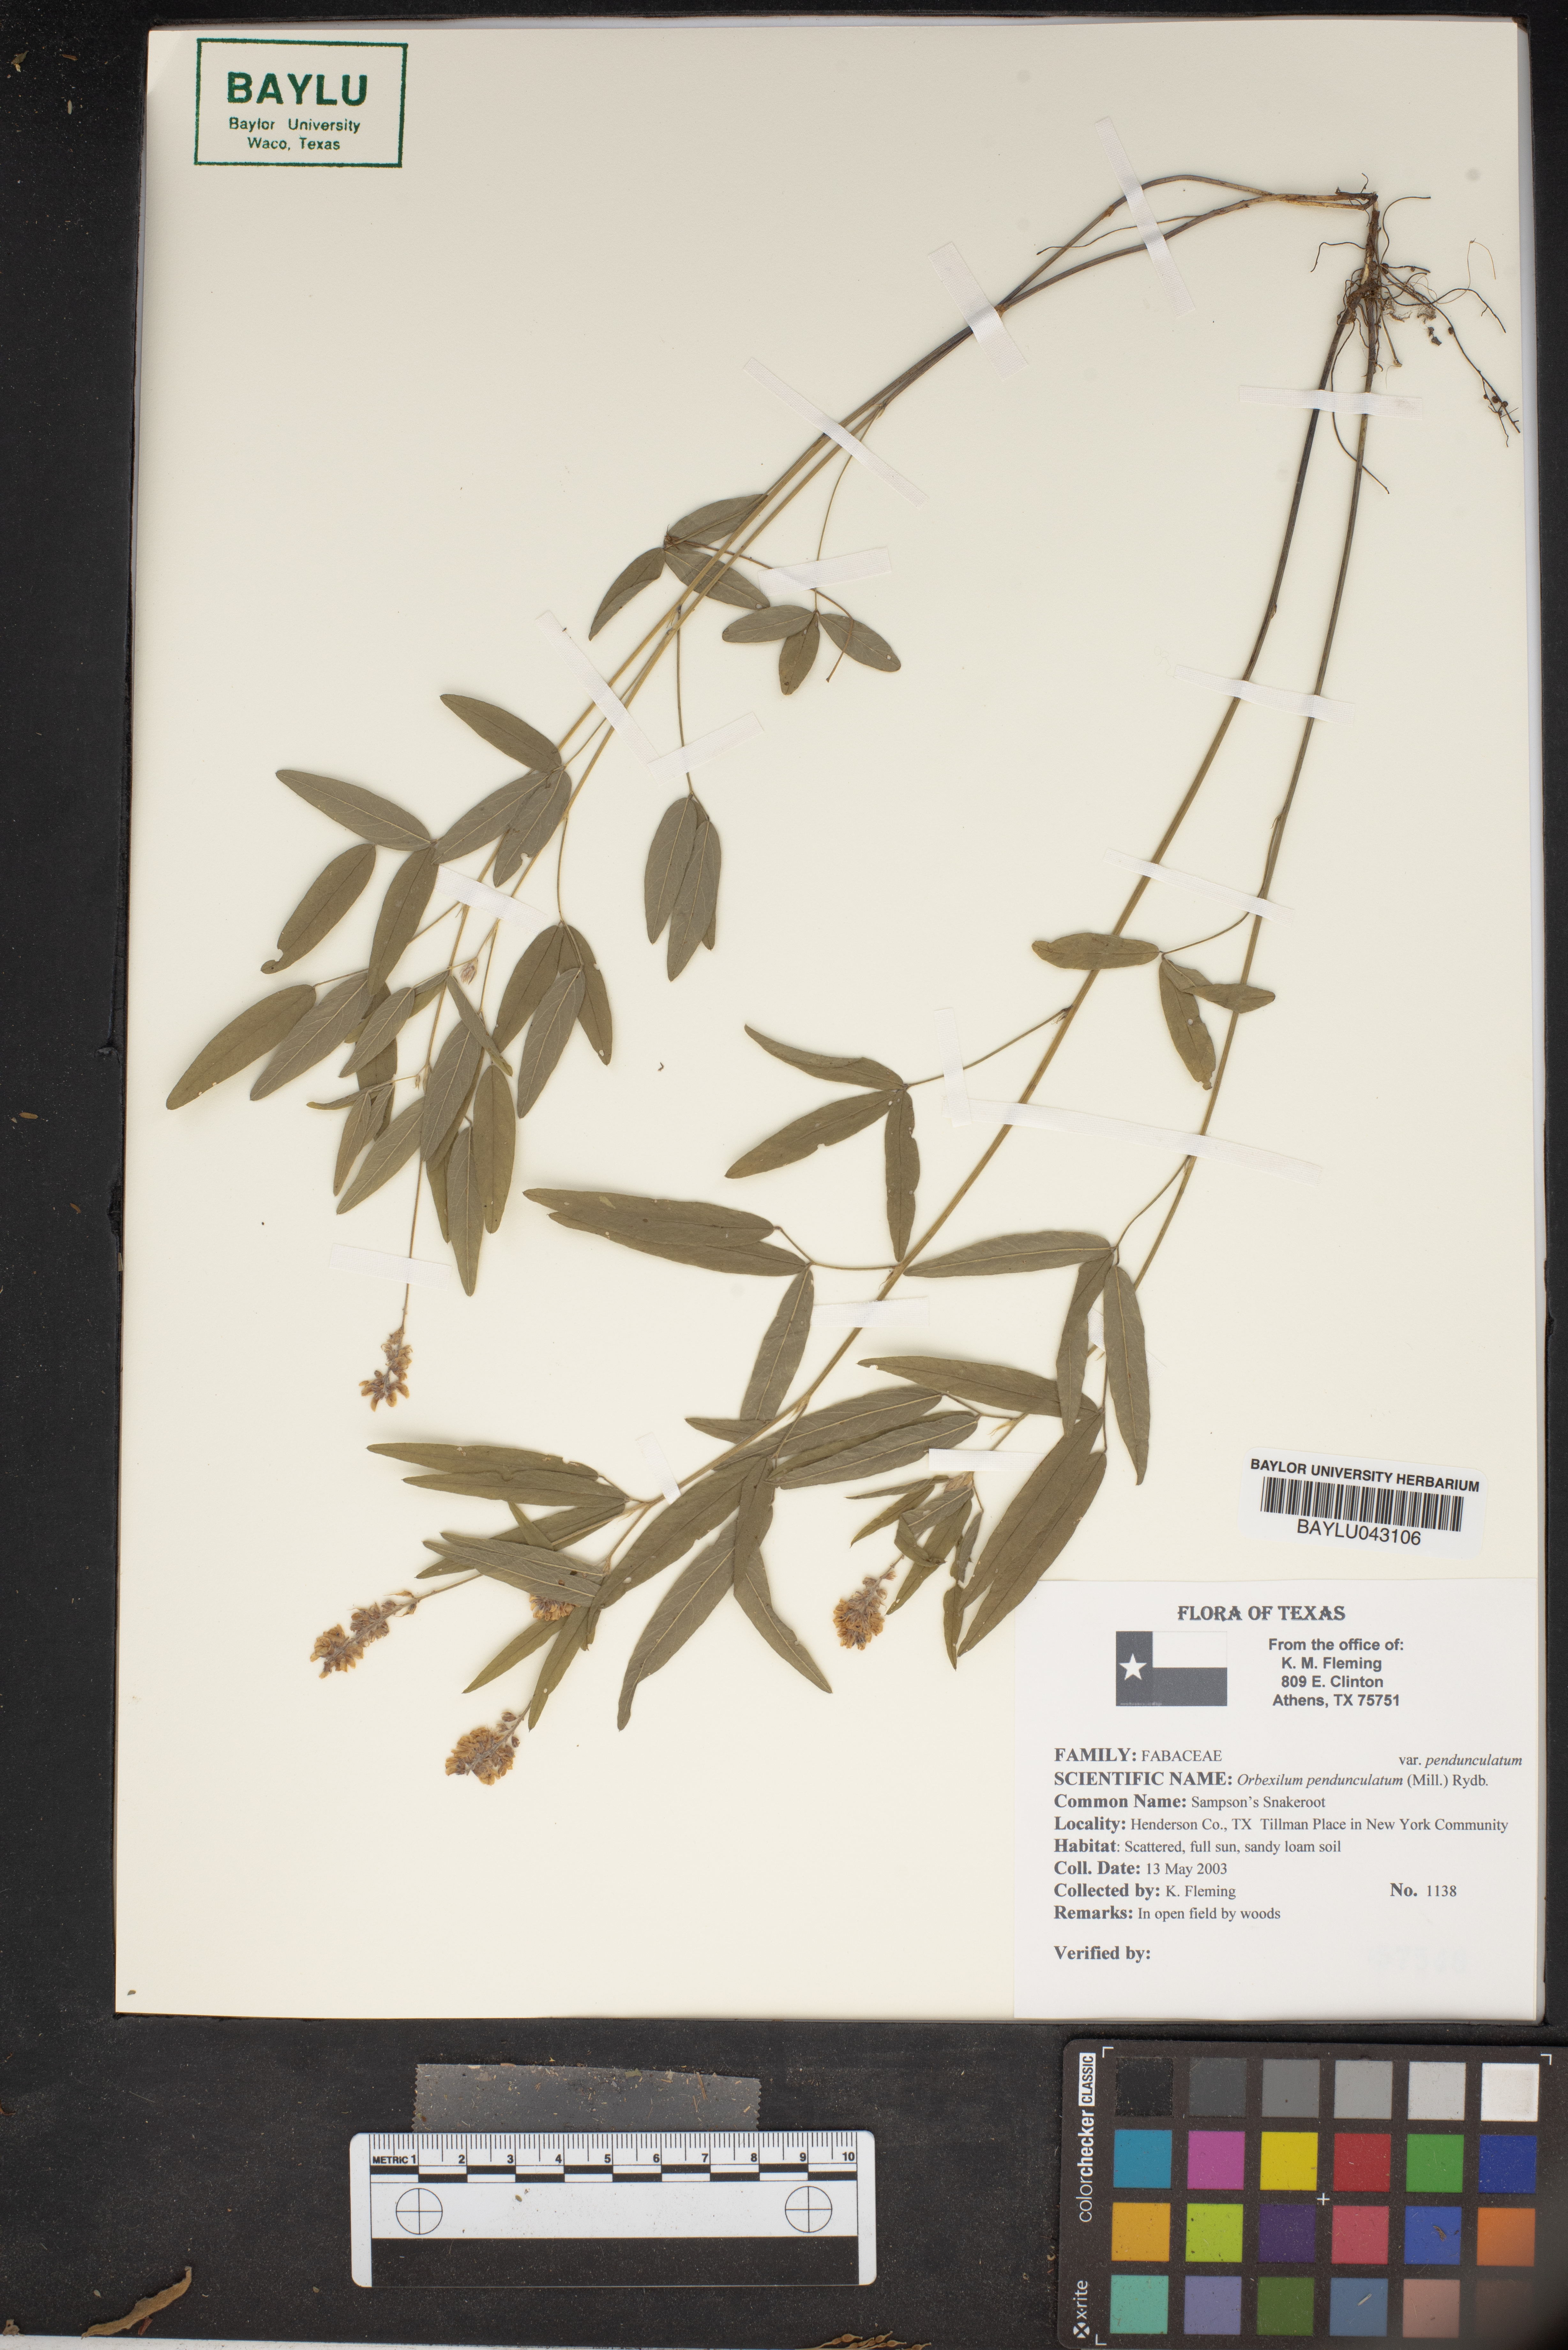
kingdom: Plantae
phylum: Tracheophyta
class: Magnoliopsida
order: Fabales
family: Fabaceae
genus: Orbexilum
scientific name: Orbexilum pedunculatum
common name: Sampson's snakeroot
